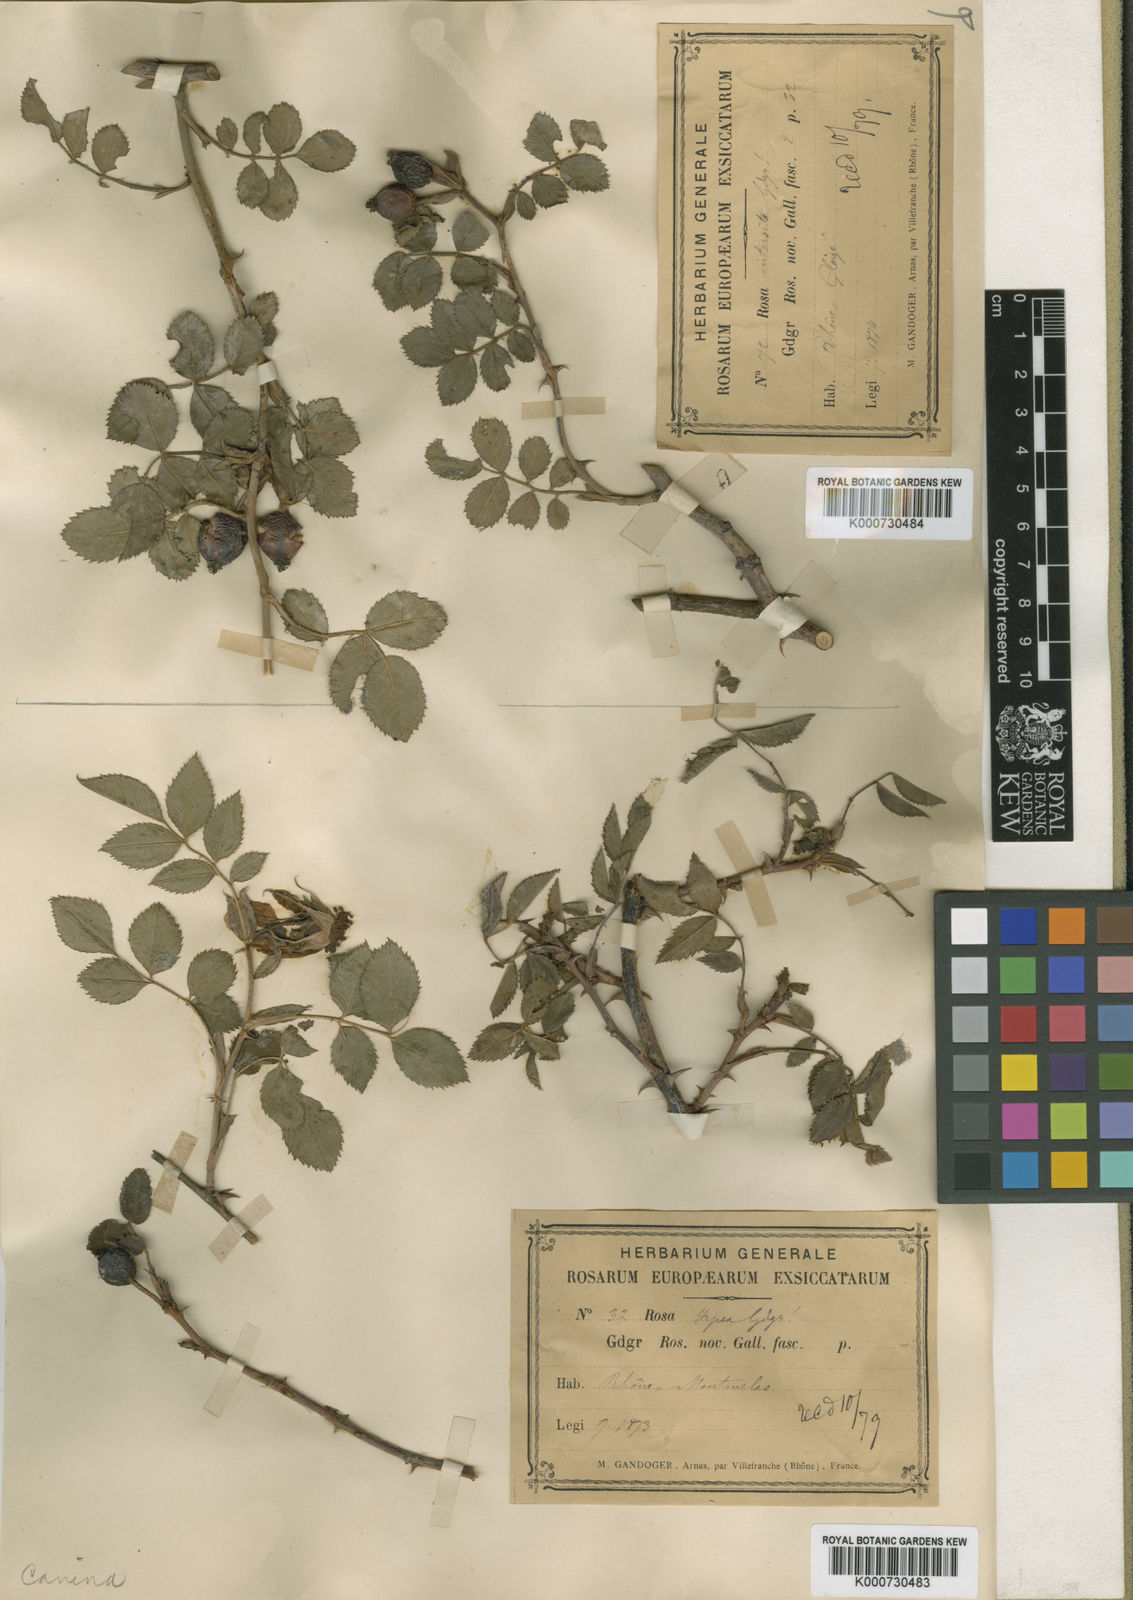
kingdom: Plantae
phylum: Tracheophyta
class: Magnoliopsida
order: Rosales
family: Rosaceae
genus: Rosa
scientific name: Rosa canina
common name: Dog rose
